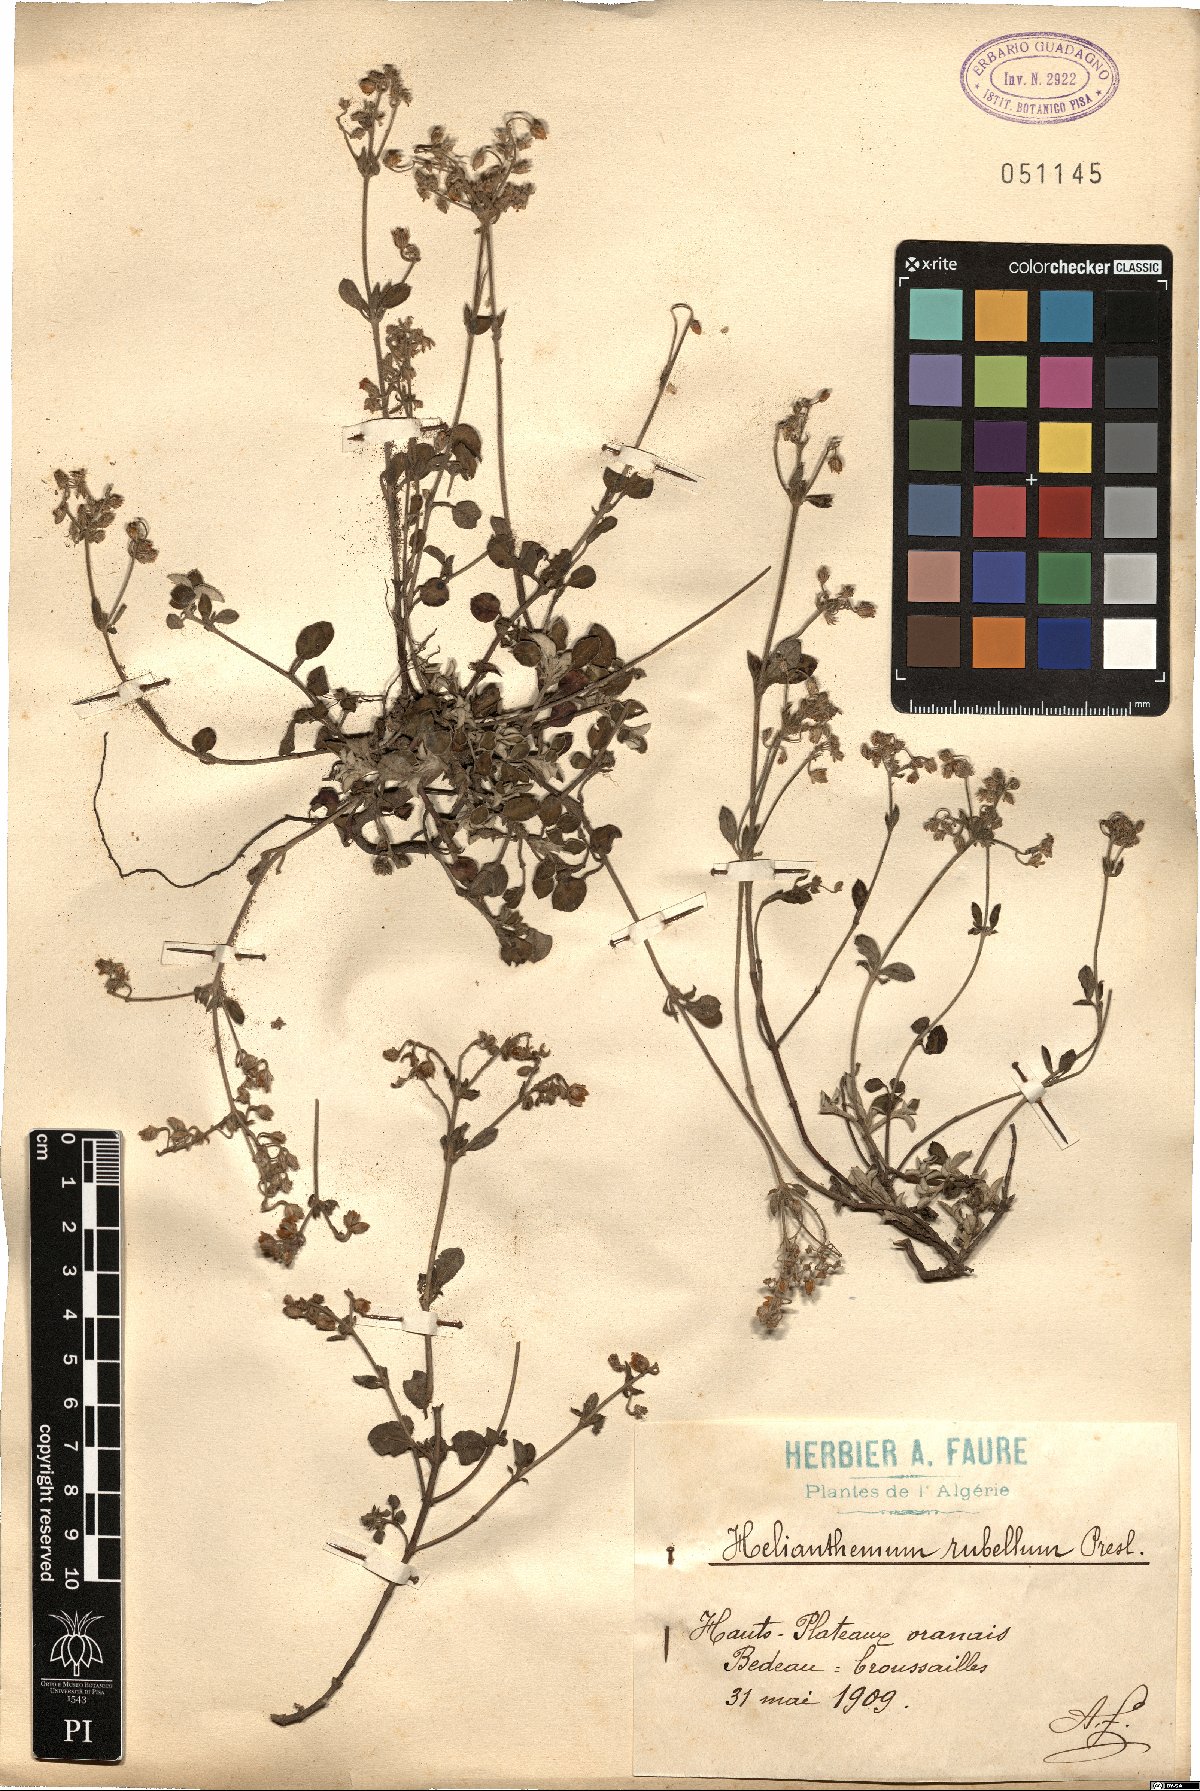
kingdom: Plantae
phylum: Tracheophyta
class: Magnoliopsida
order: Malvales
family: Cistaceae
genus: Helianthemum
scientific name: Helianthemum cinereum
